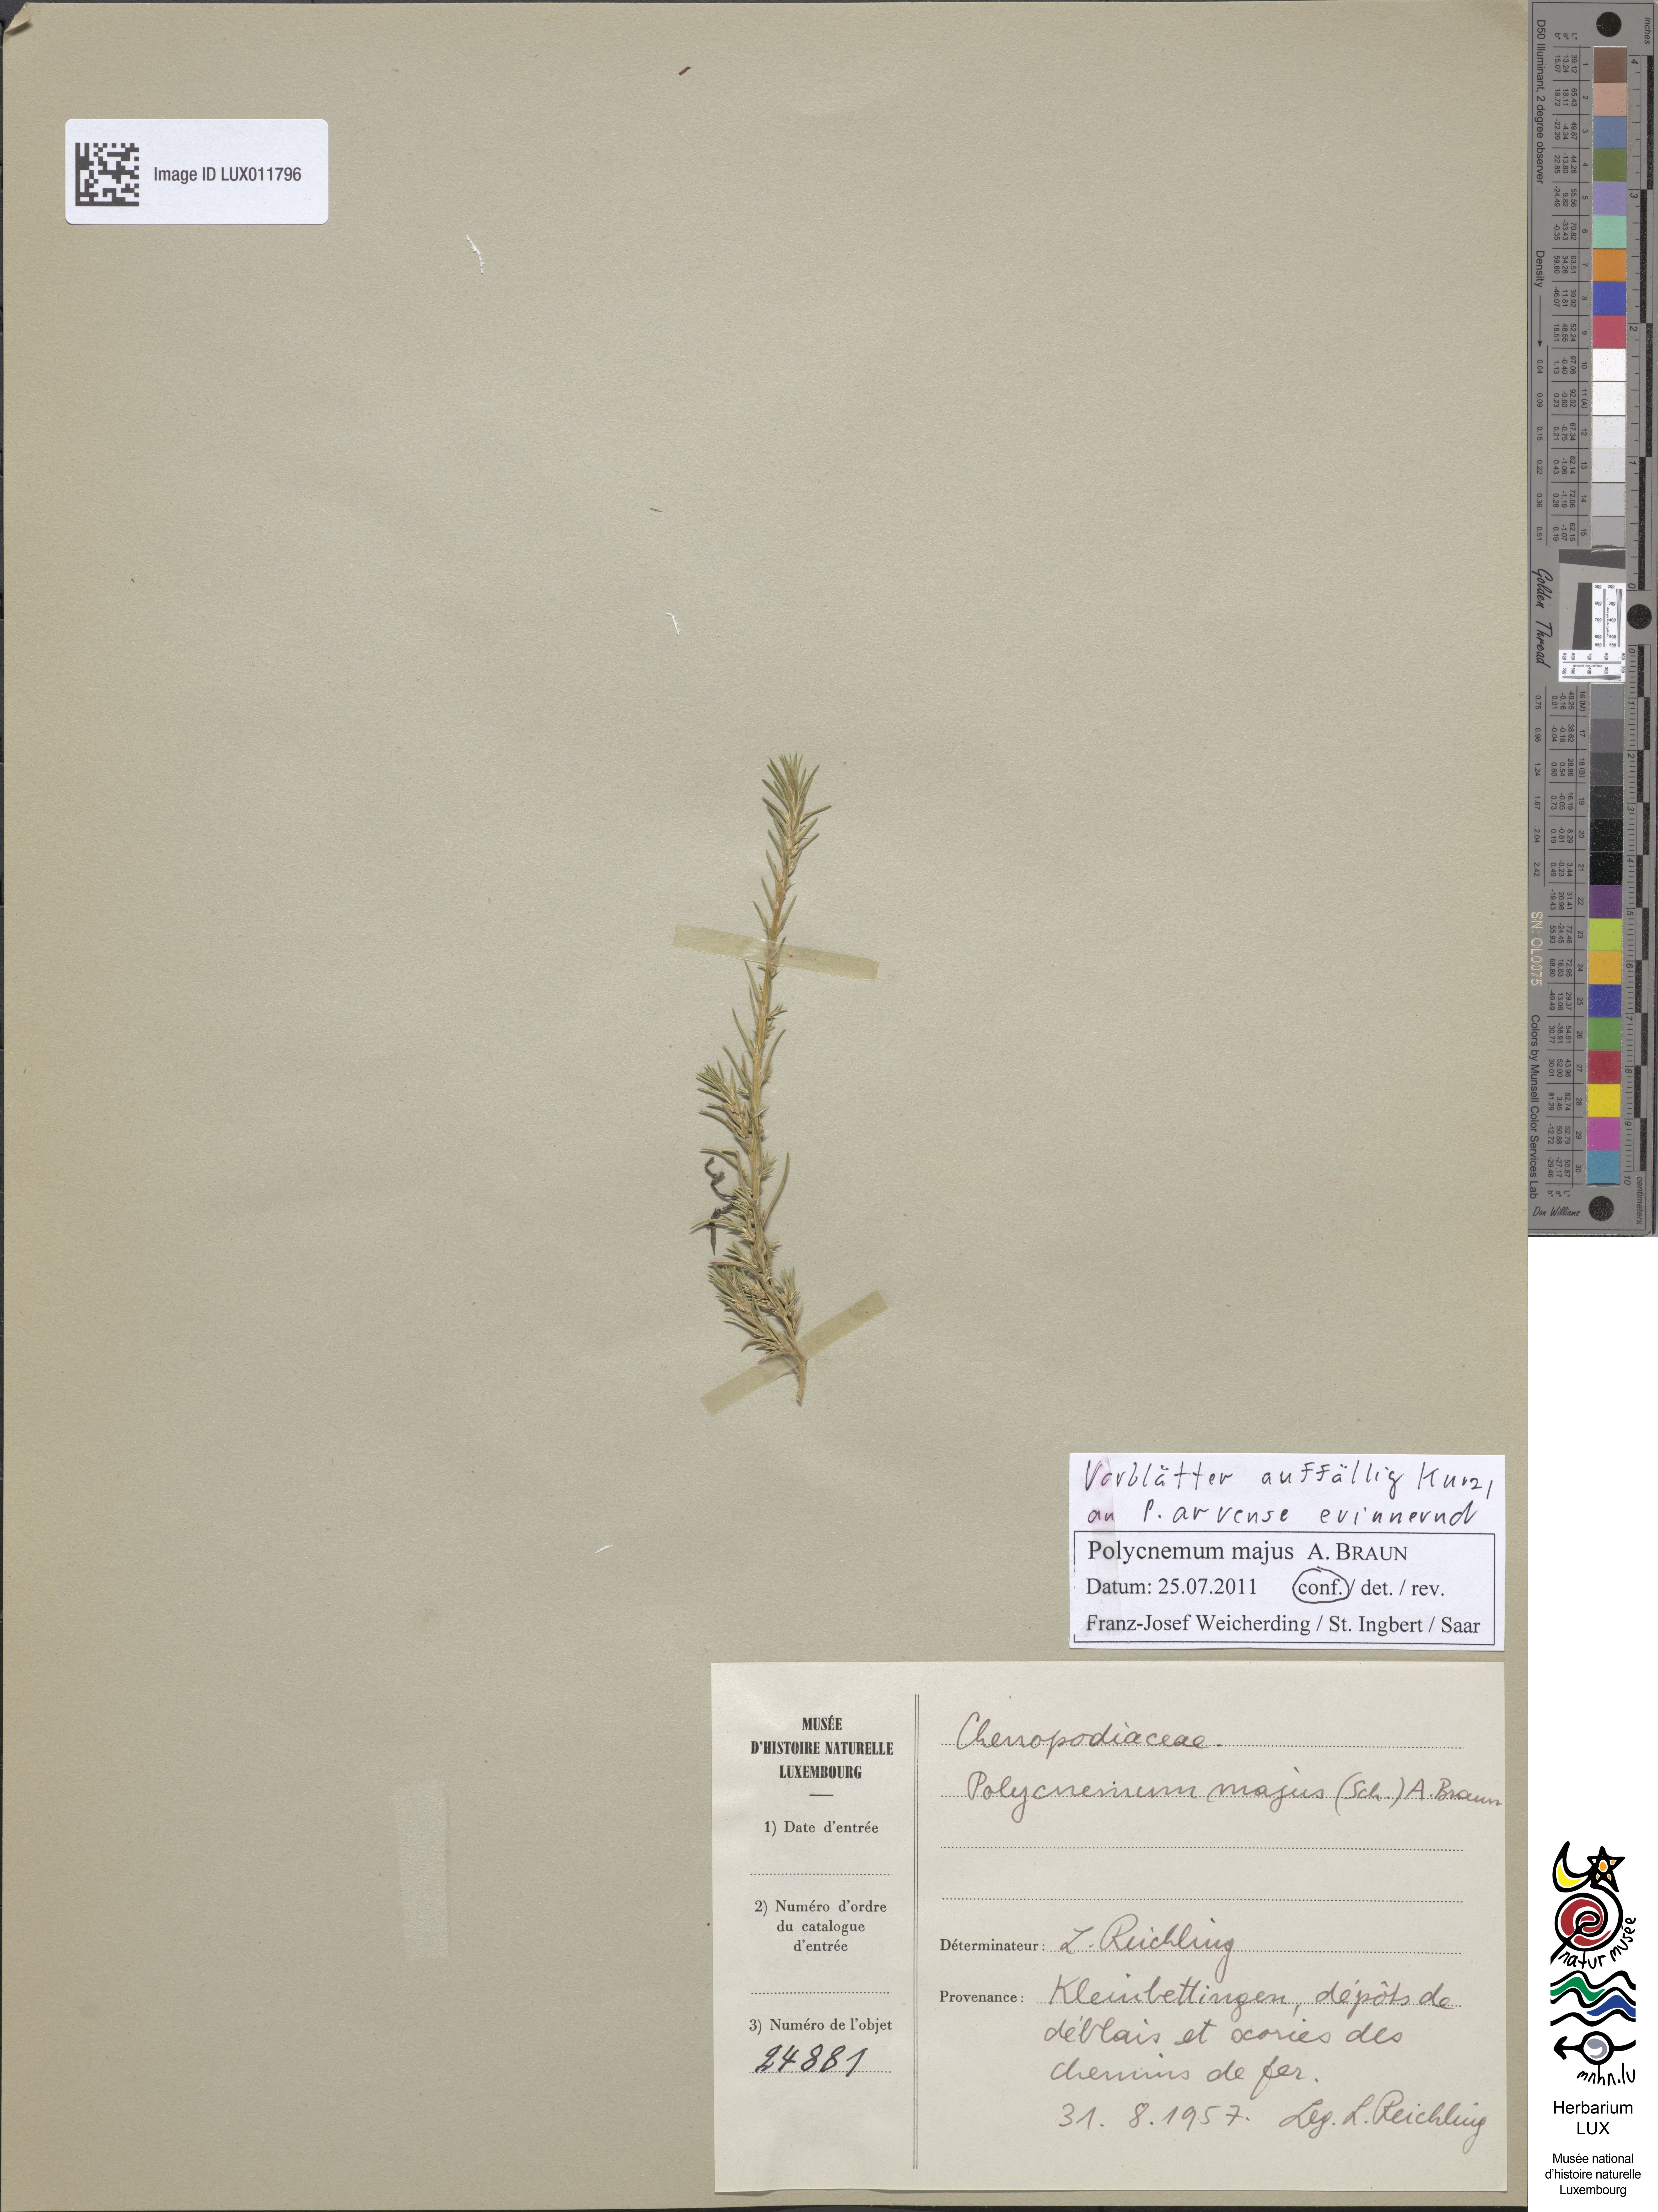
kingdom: Plantae
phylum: Tracheophyta
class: Magnoliopsida
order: Caryophyllales
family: Amaranthaceae
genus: Polycnemum
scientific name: Polycnemum majus
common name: Giant needleleaf
